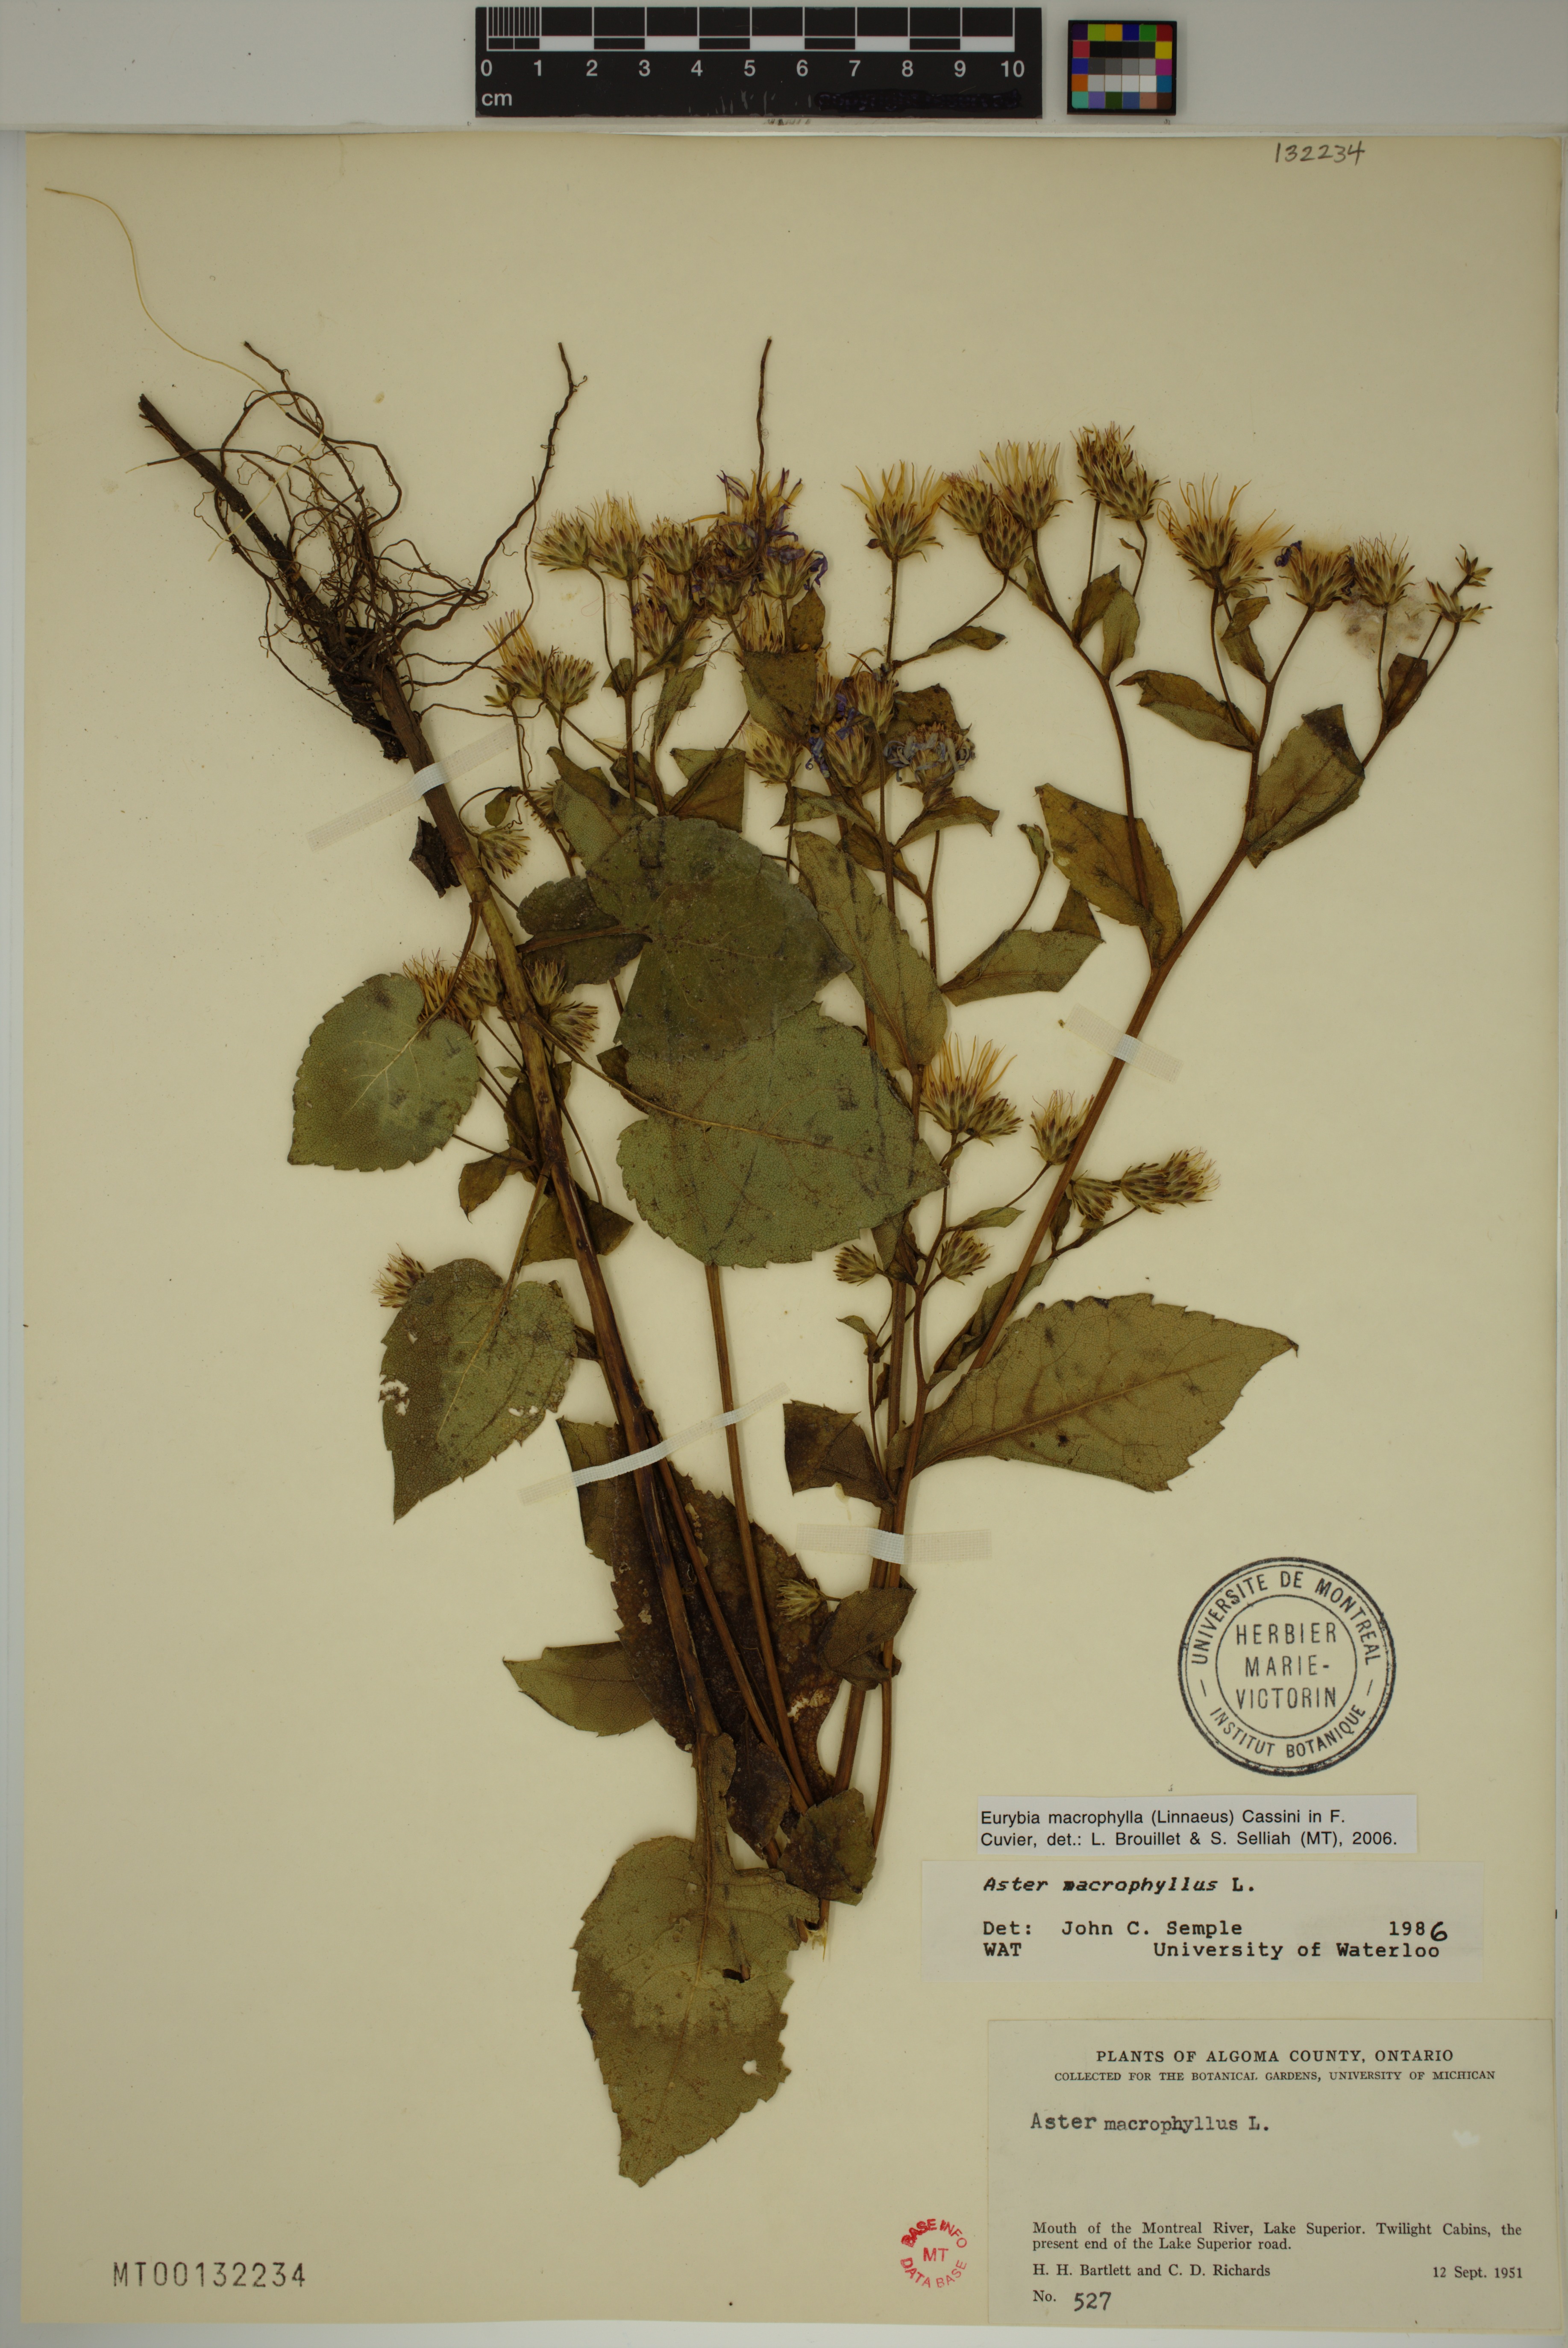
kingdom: Plantae
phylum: Tracheophyta
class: Magnoliopsida
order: Asterales
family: Asteraceae
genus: Eurybia
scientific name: Eurybia macrophylla
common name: Big-leaved aster
